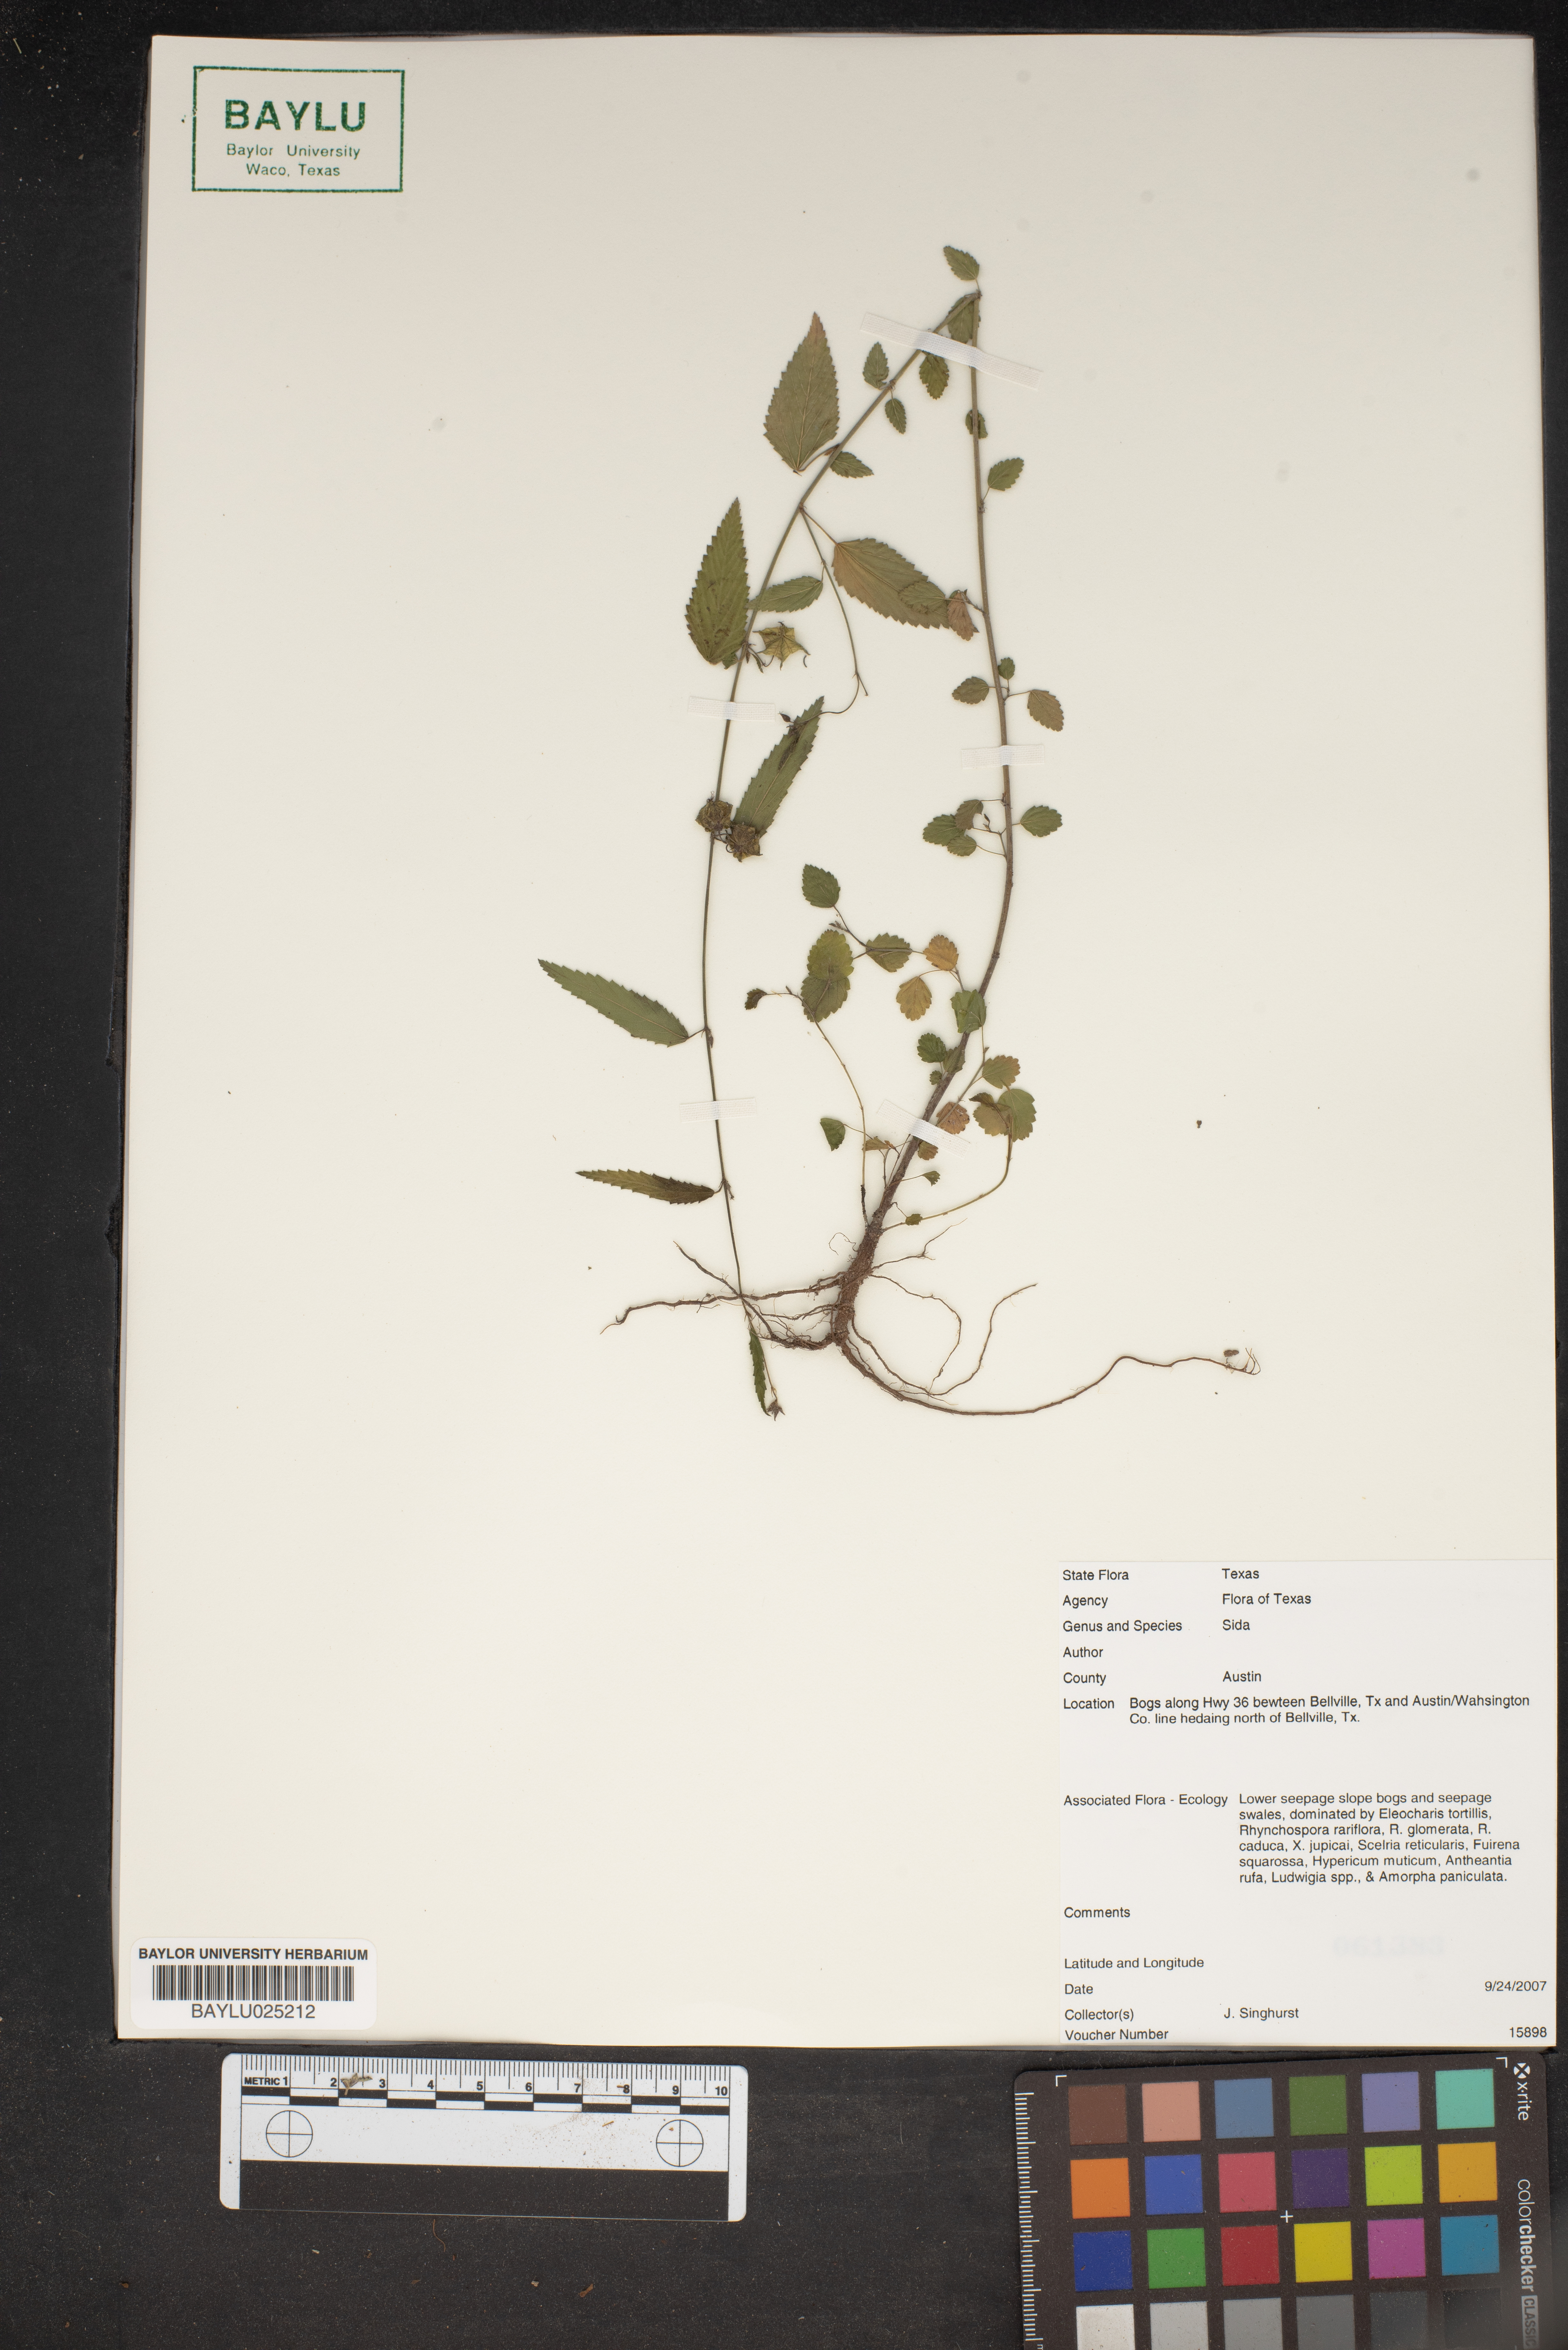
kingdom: Plantae
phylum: Tracheophyta
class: Magnoliopsida
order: Malvales
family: Malvaceae
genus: Sida
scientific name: Sida
